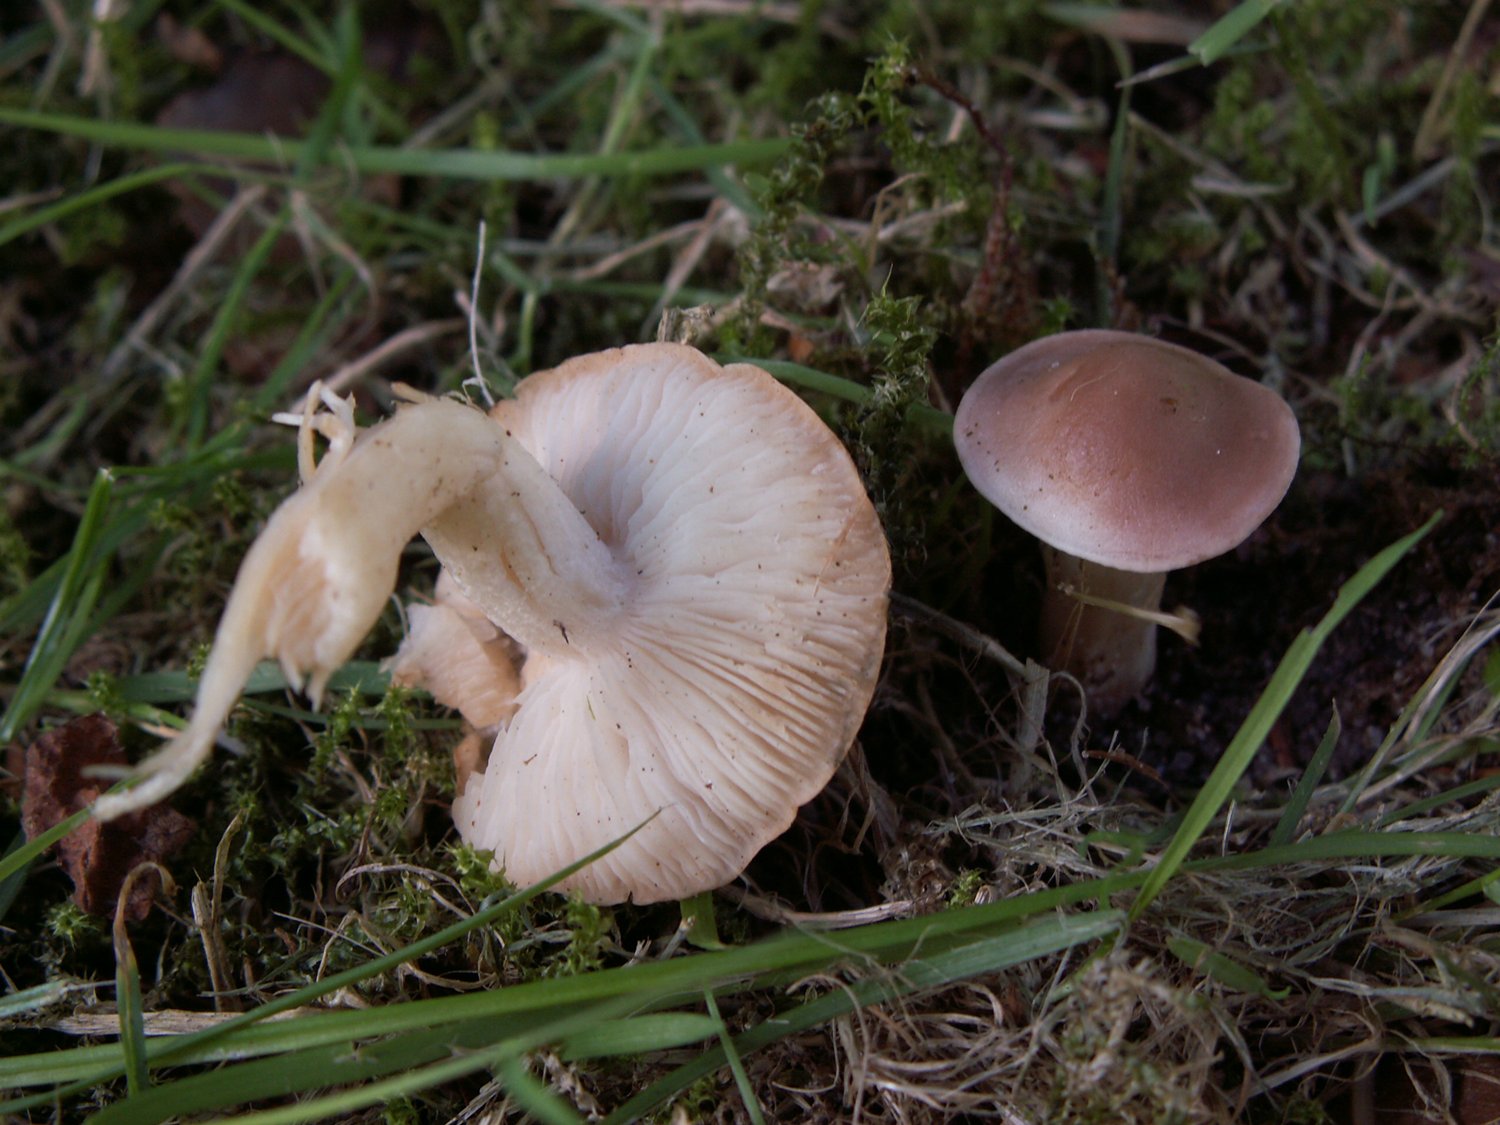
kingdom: Fungi
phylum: Basidiomycota
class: Agaricomycetes
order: Agaricales
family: Lyophyllaceae
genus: Gerhardtia
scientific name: Gerhardtia borealis
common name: rosabrun fagerhat
